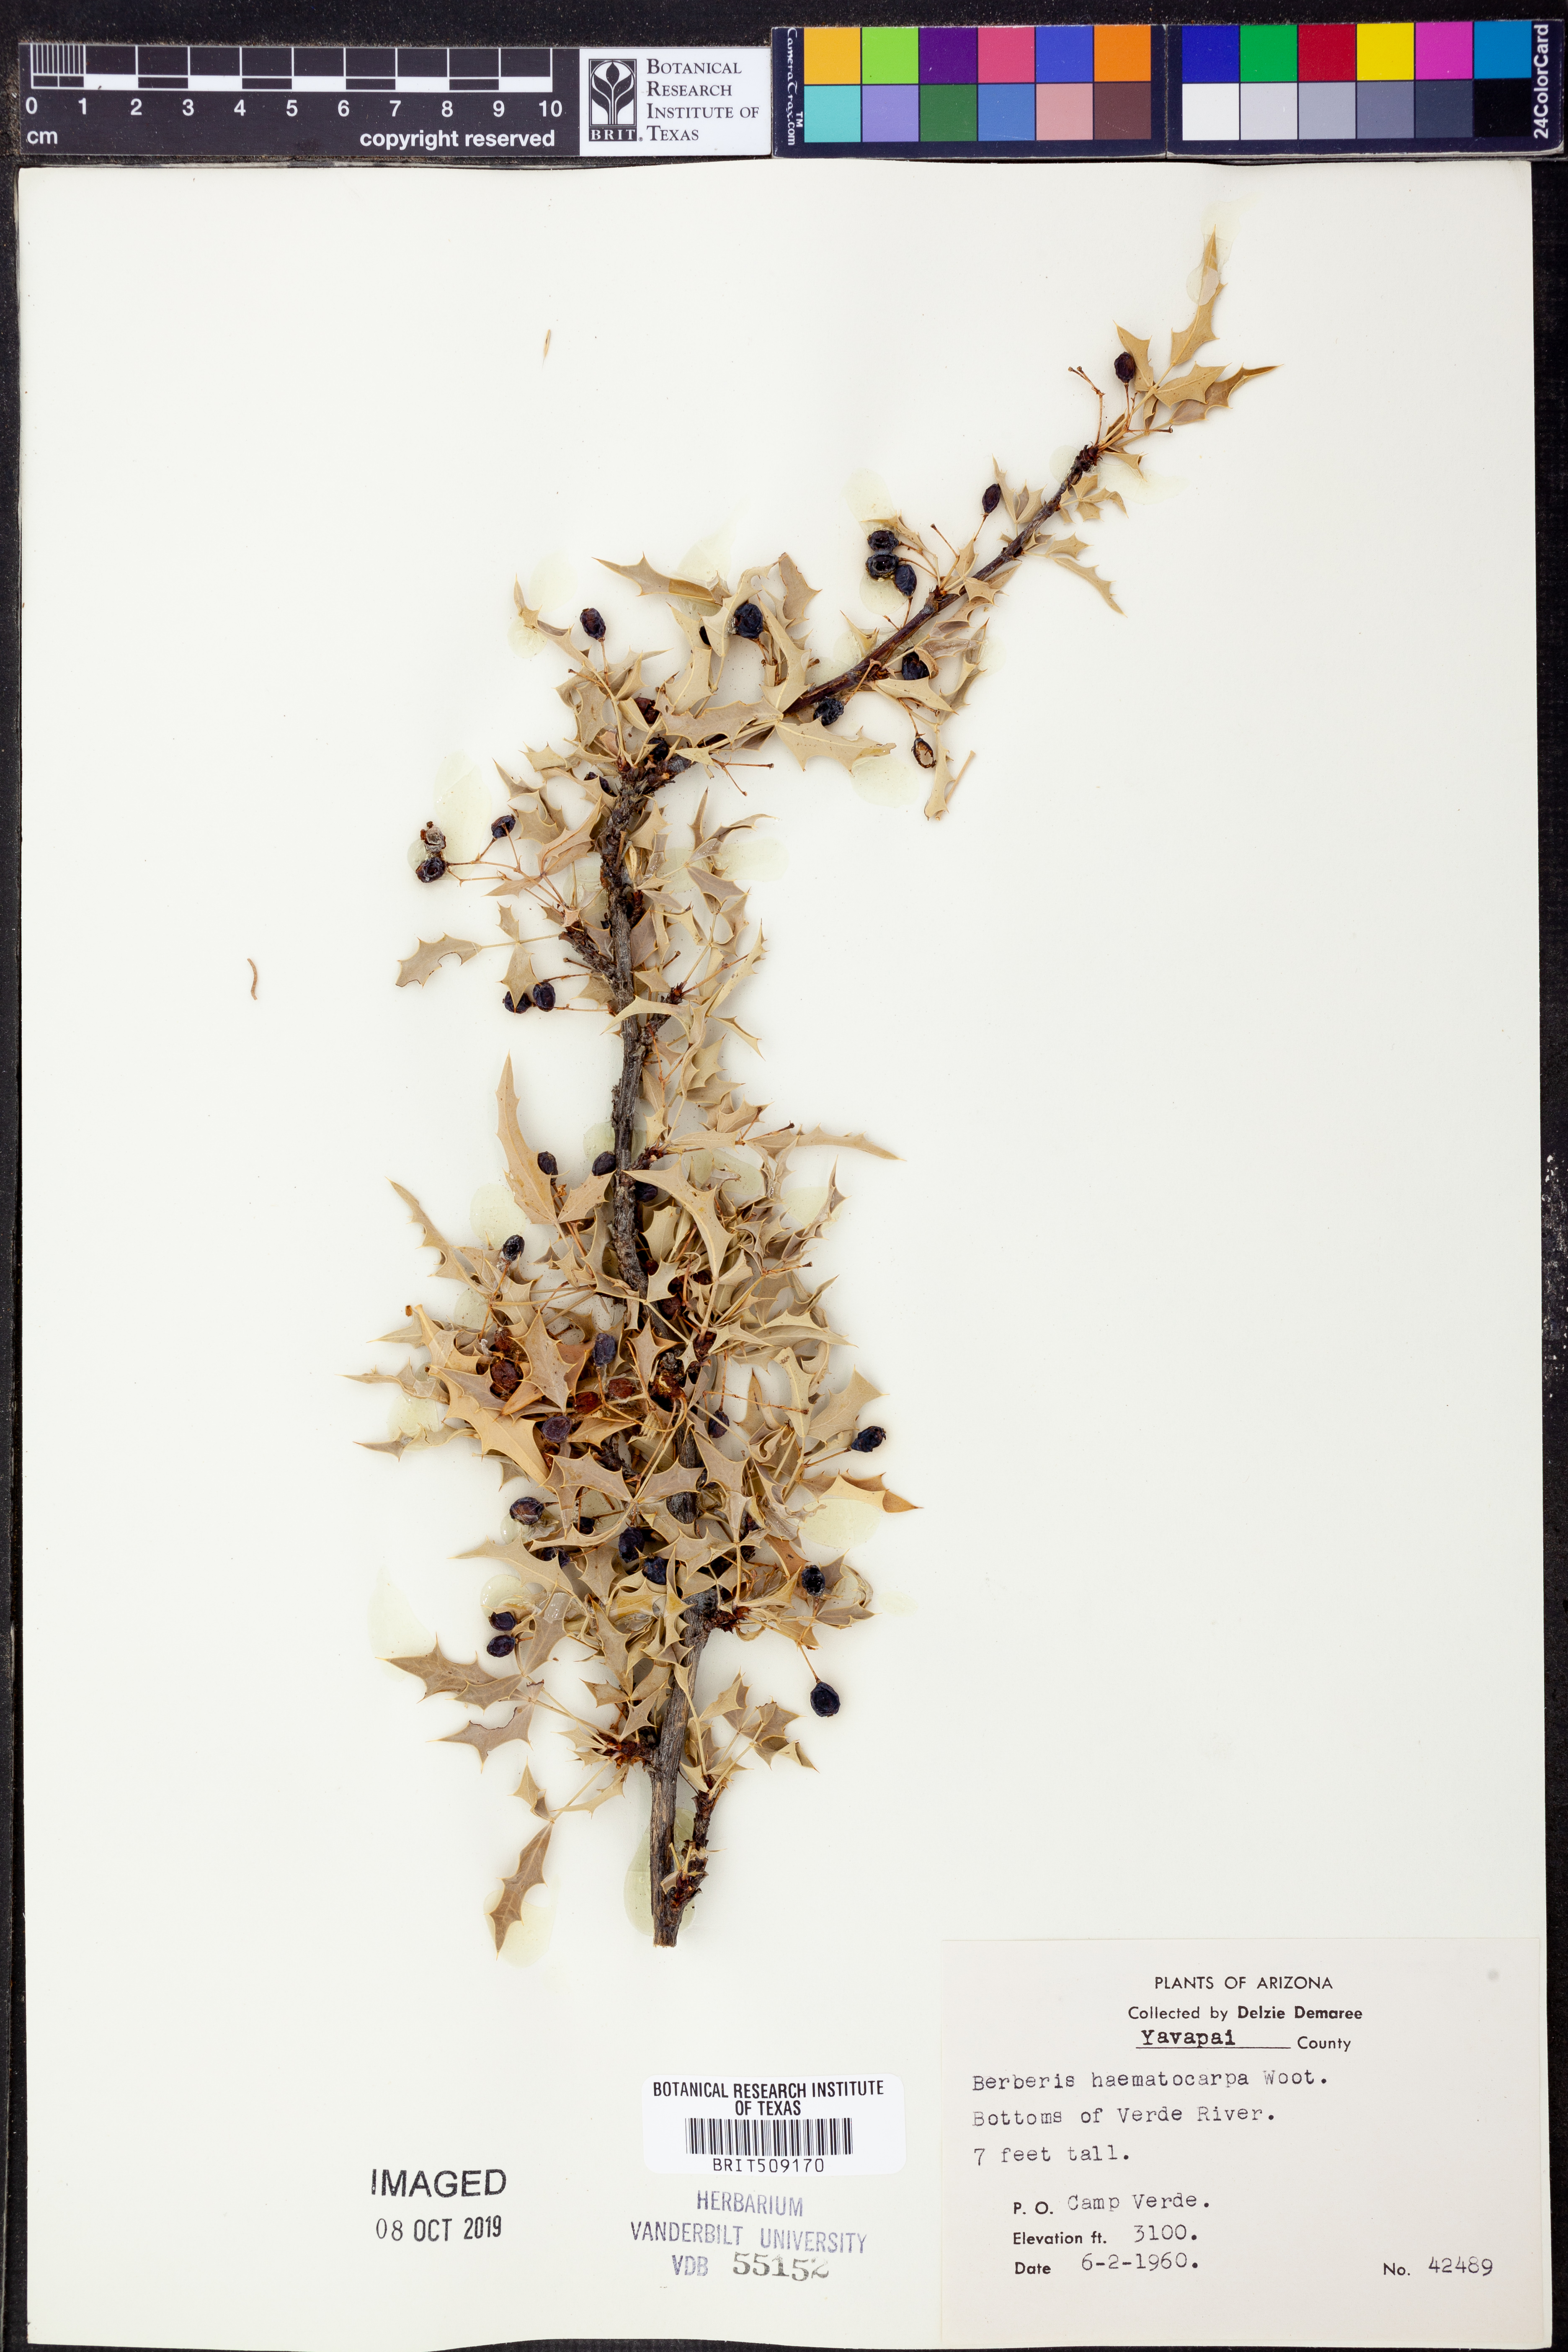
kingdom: Plantae
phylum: Tracheophyta
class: Magnoliopsida
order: Ranunculales
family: Berberidaceae
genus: Alloberberis
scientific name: Alloberberis haematocarpa
